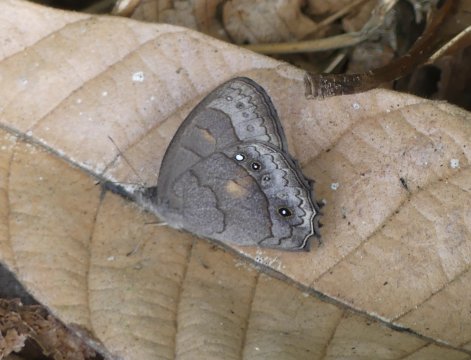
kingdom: Animalia
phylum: Arthropoda
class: Insecta
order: Lepidoptera
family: Nymphalidae
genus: Taygetis
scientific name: Taygetis kerea
